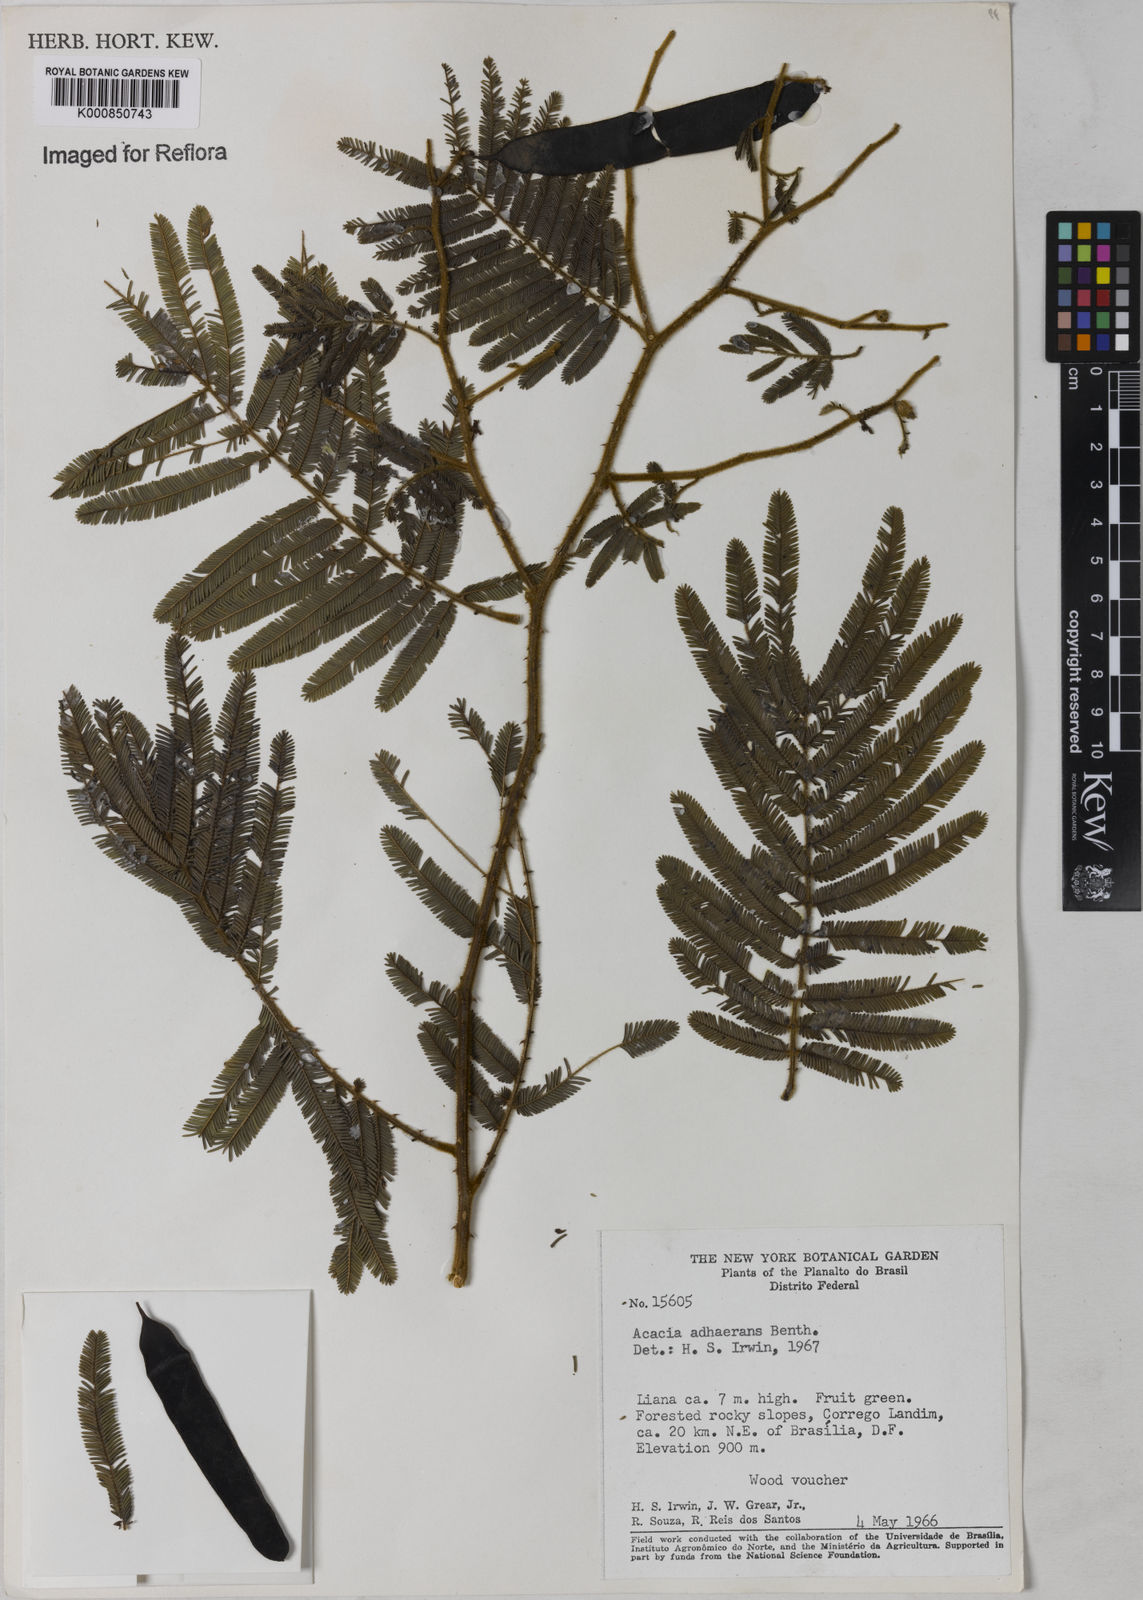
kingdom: Plantae
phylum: Tracheophyta
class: Magnoliopsida
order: Fabales
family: Fabaceae
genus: Senegalia
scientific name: Senegalia martiusiana
